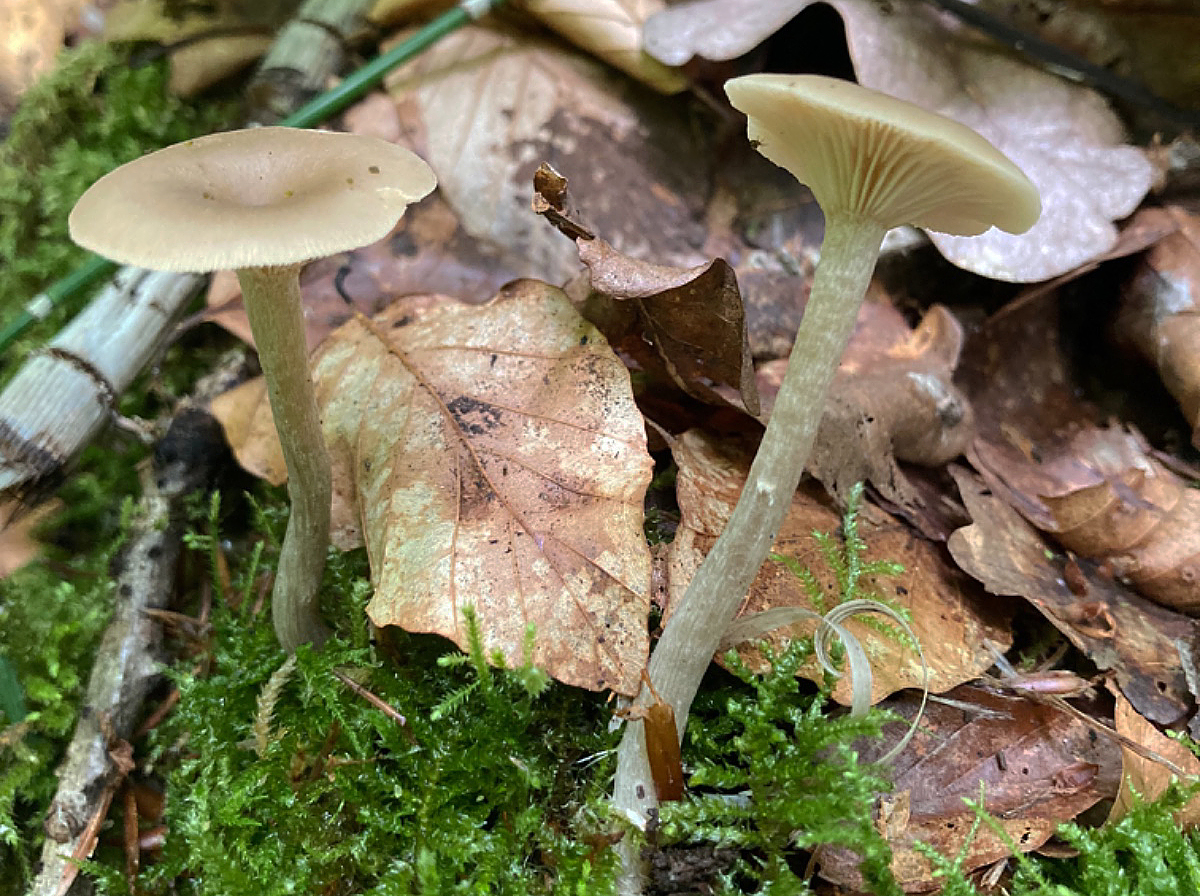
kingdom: Fungi
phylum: Basidiomycota
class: Agaricomycetes
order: Agaricales
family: Tricholomataceae
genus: Clitocybe
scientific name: Clitocybe subspadicea
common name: nitrøs tragthat
